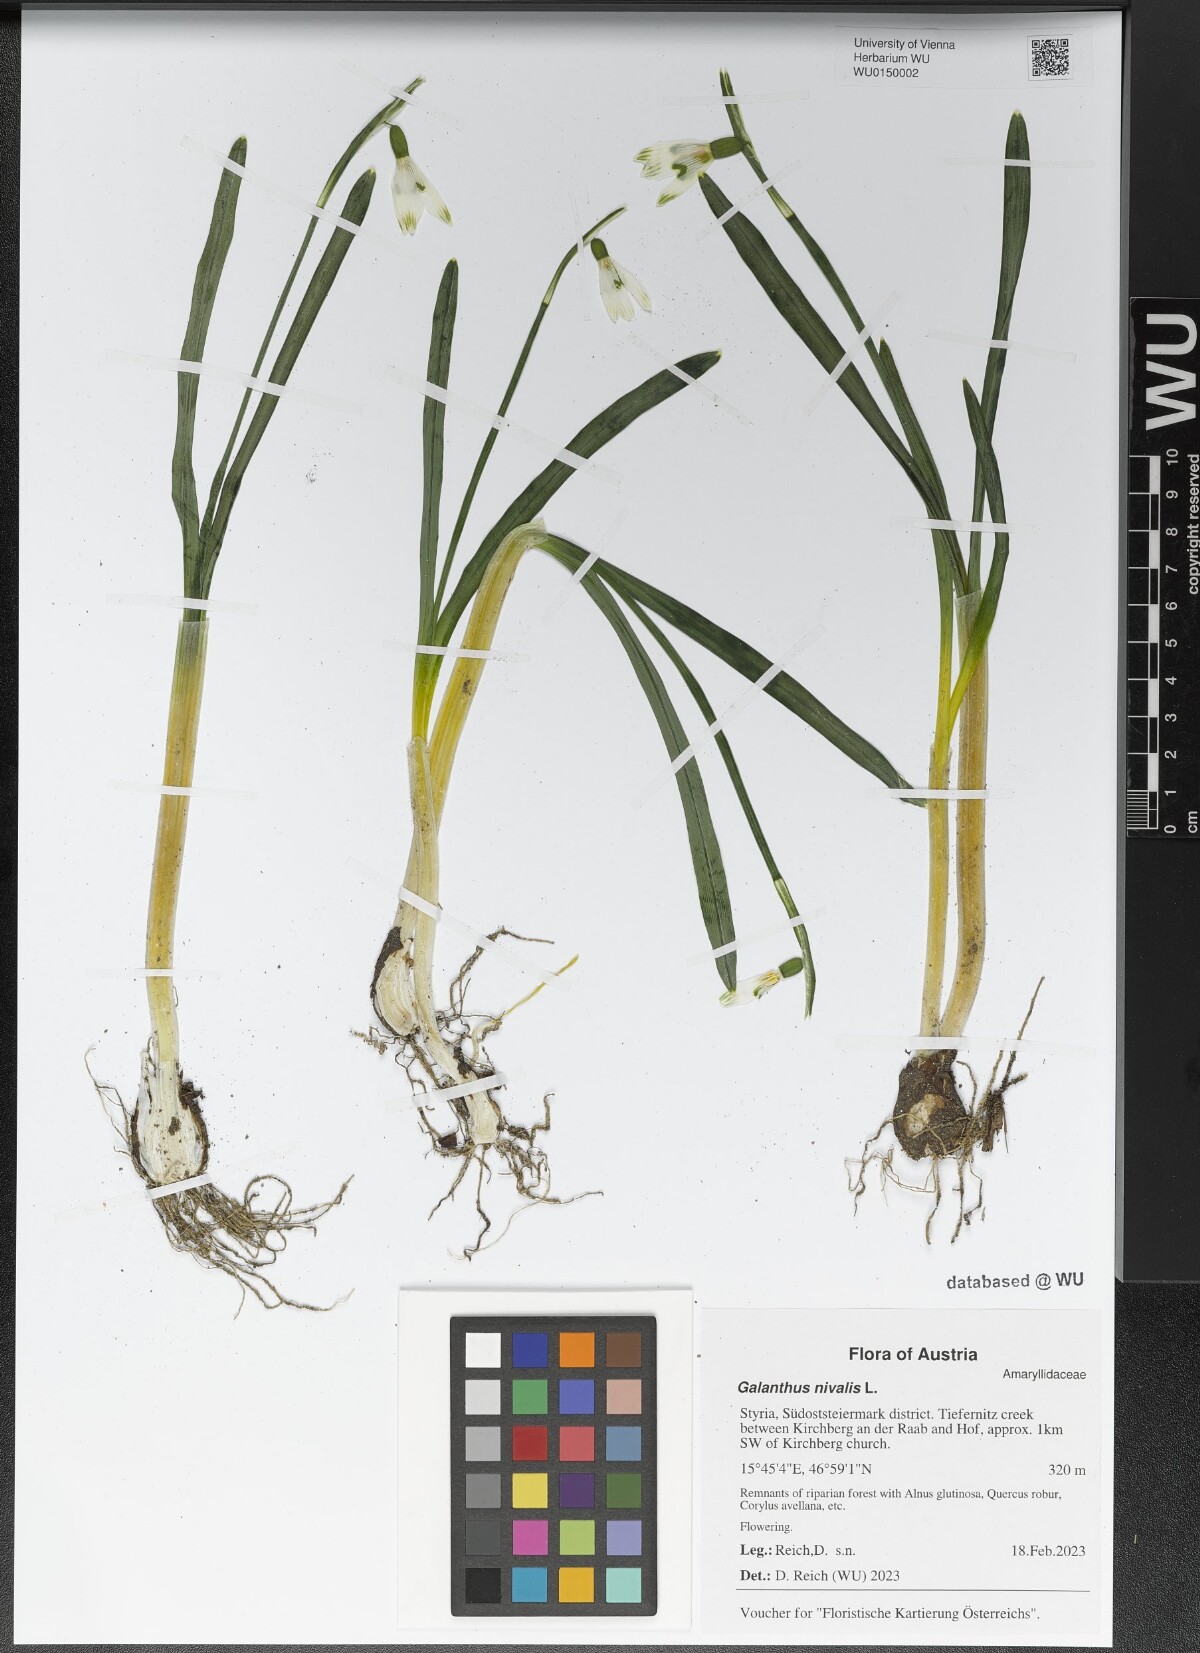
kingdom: Plantae
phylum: Tracheophyta
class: Liliopsida
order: Asparagales
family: Amaryllidaceae
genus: Galanthus
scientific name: Galanthus nivalis
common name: Snowdrop
